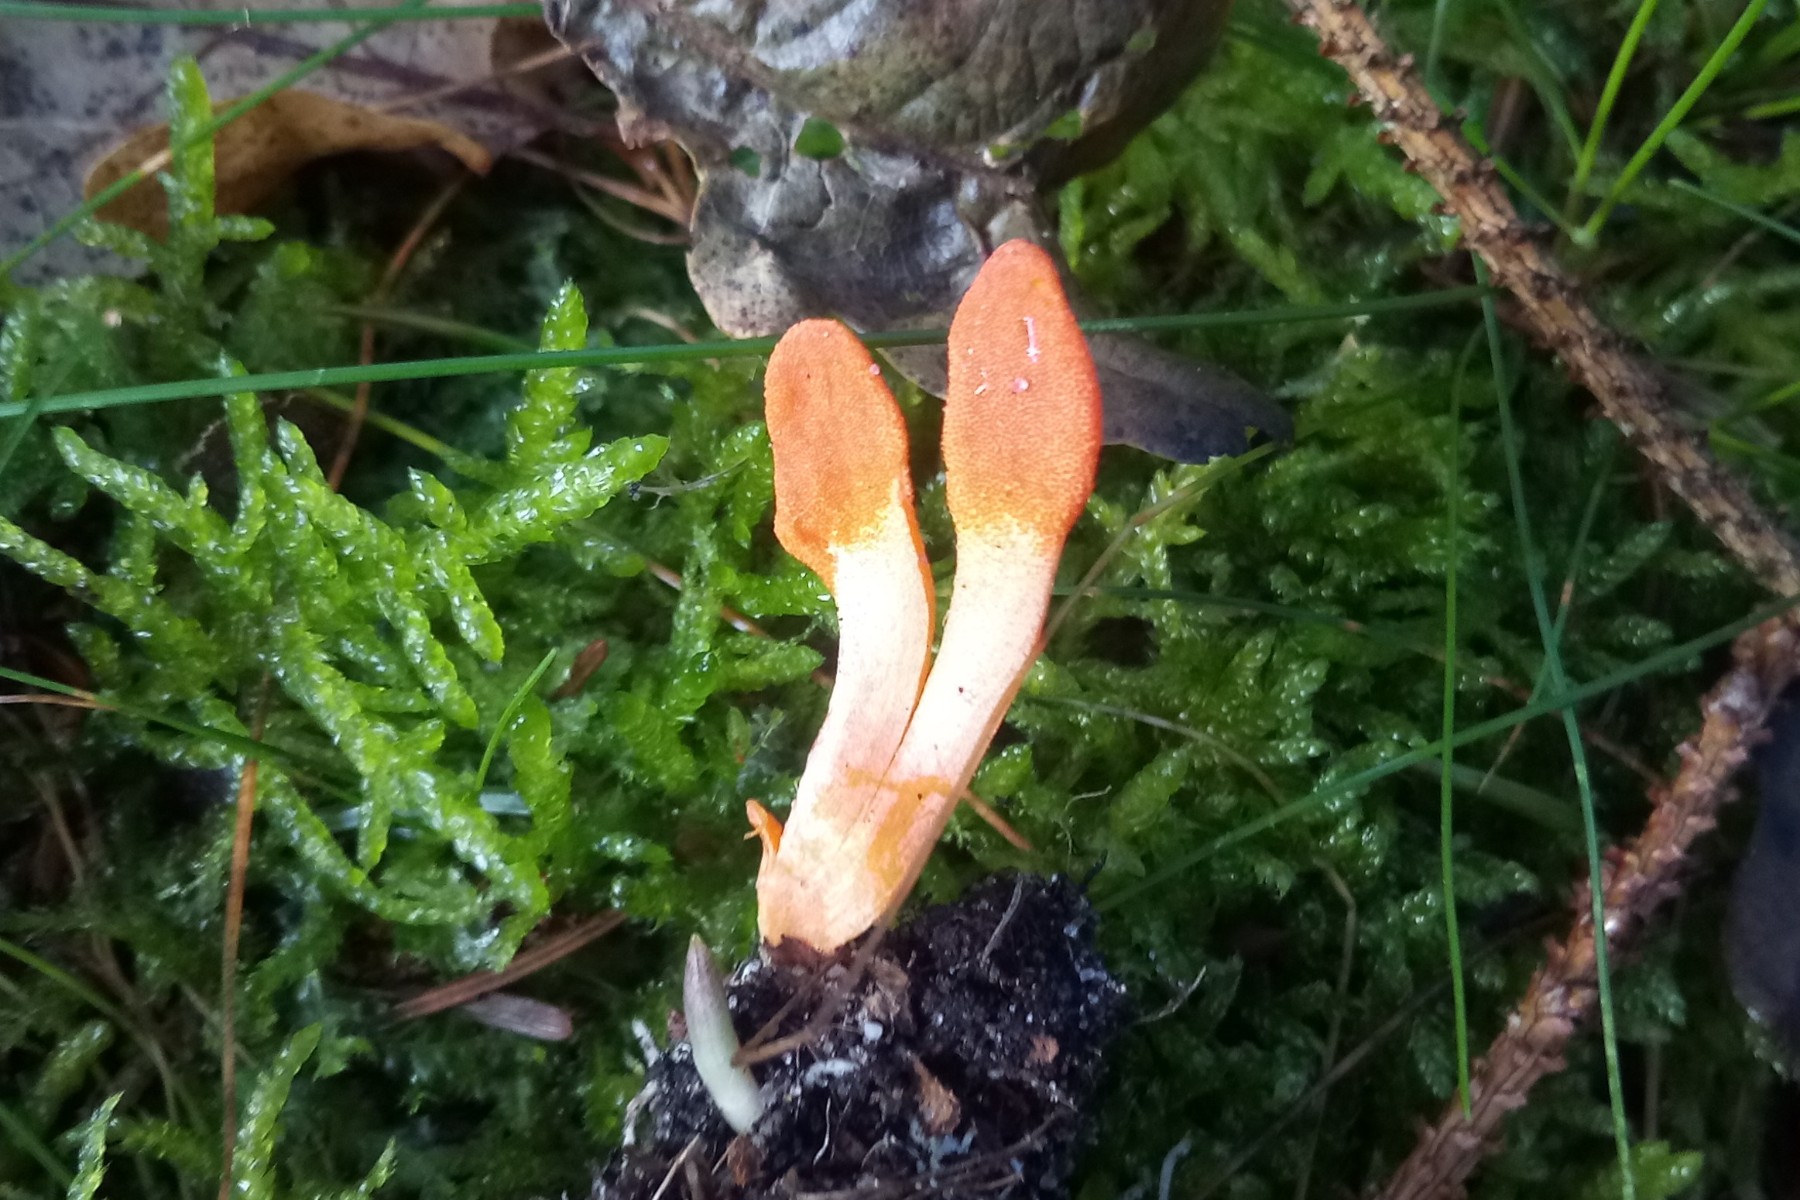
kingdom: Fungi
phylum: Ascomycota
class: Sordariomycetes
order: Hypocreales
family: Cordycipitaceae
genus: Cordyceps
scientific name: Cordyceps militaris
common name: puppe-snyltekølle
